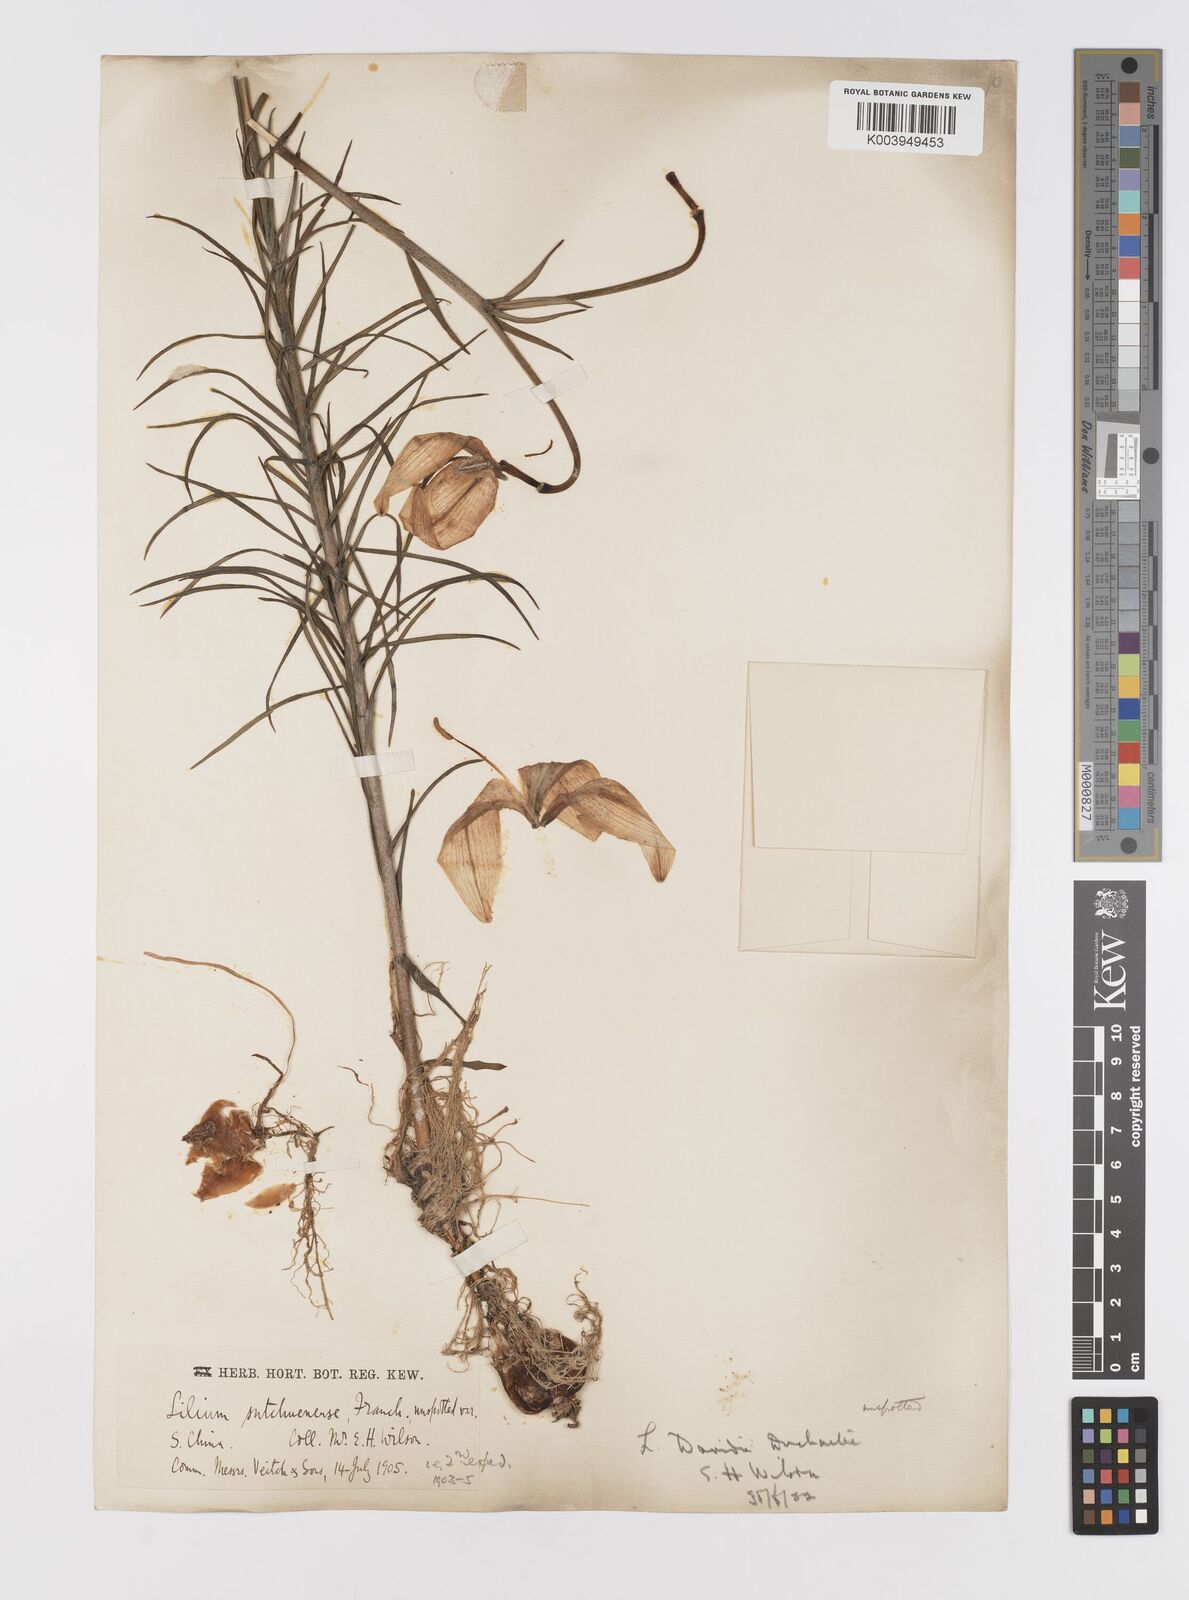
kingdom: Plantae
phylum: Tracheophyta
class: Liliopsida
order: Liliales
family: Liliaceae
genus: Lilium
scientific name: Lilium davidii
